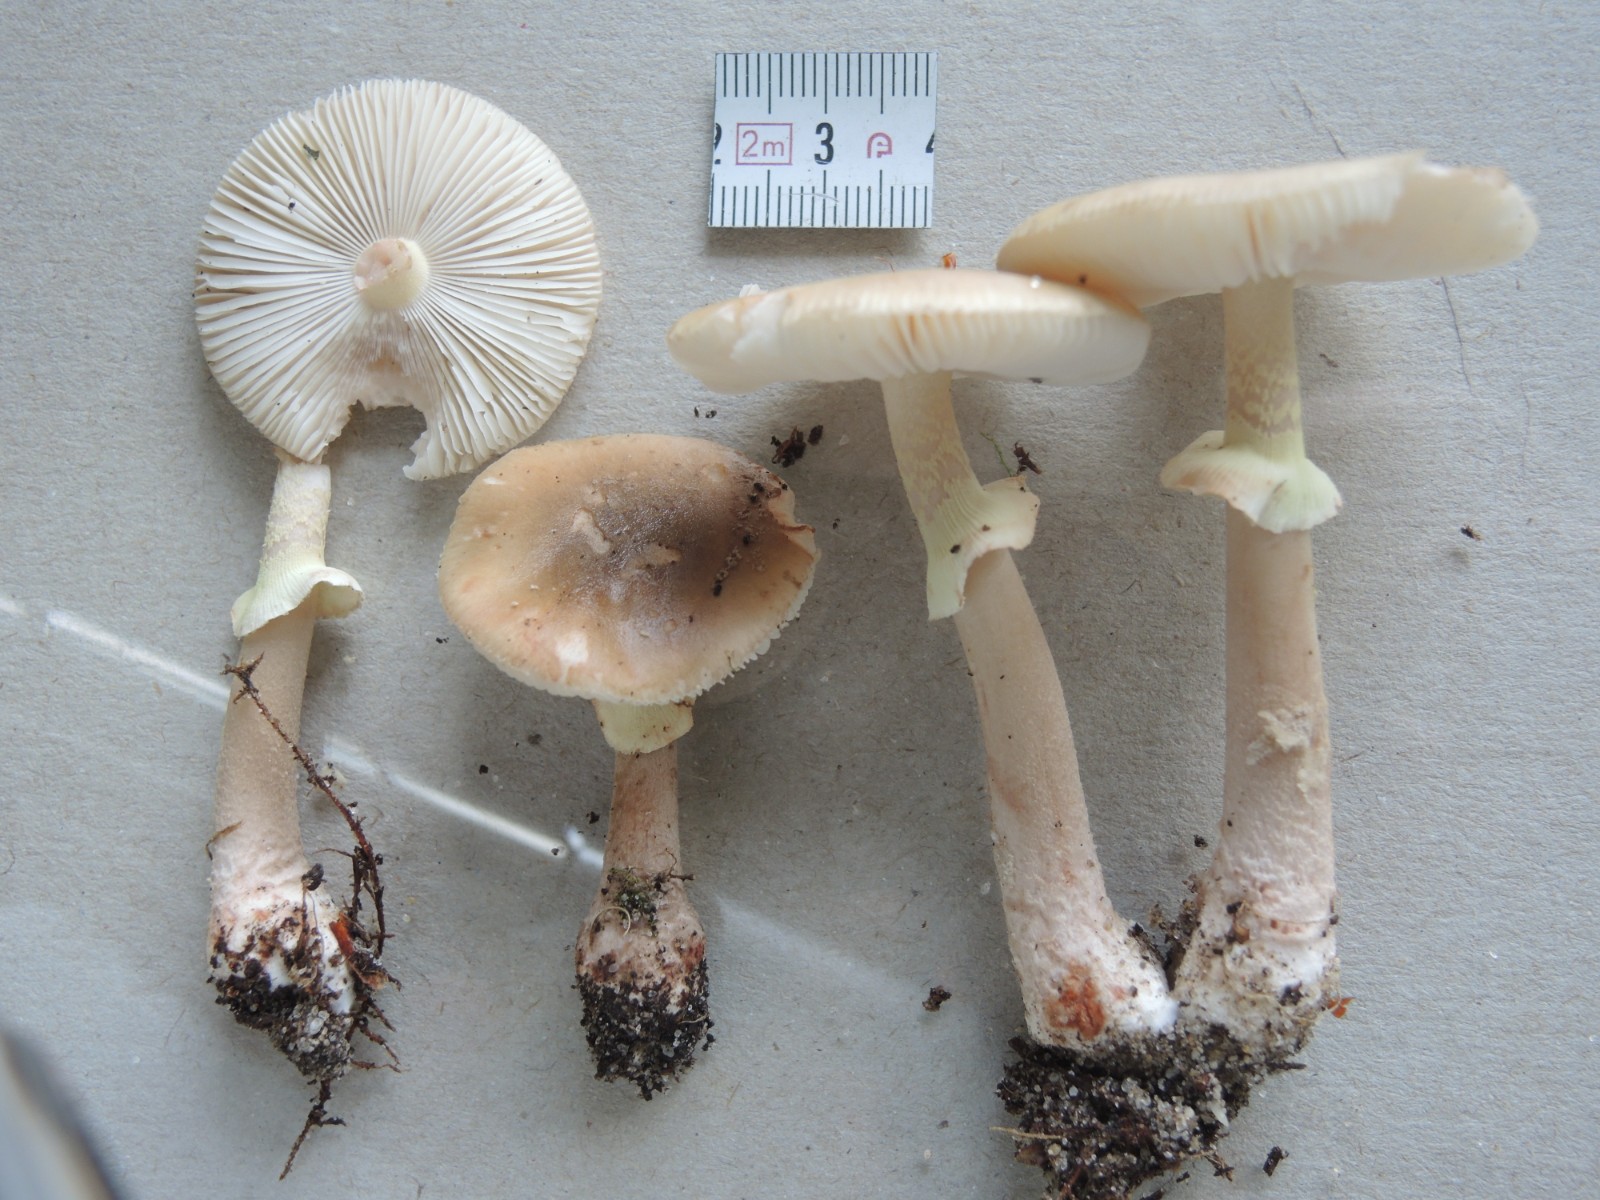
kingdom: Fungi
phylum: Basidiomycota
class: Agaricomycetes
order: Agaricales
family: Amanitaceae
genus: Amanita
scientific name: Amanita rubescens
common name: Blusher
